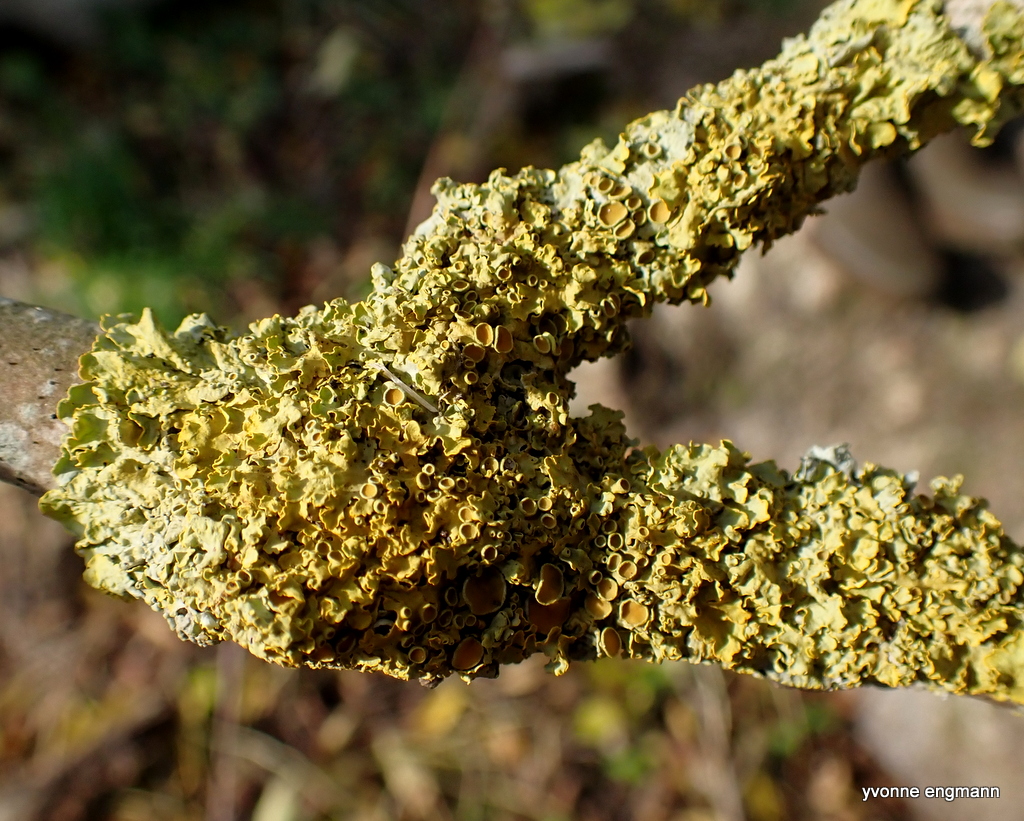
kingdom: Fungi
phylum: Ascomycota
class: Lecanoromycetes
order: Teloschistales
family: Teloschistaceae
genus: Xanthoria
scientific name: Xanthoria parietina
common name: almindelig væggelav
